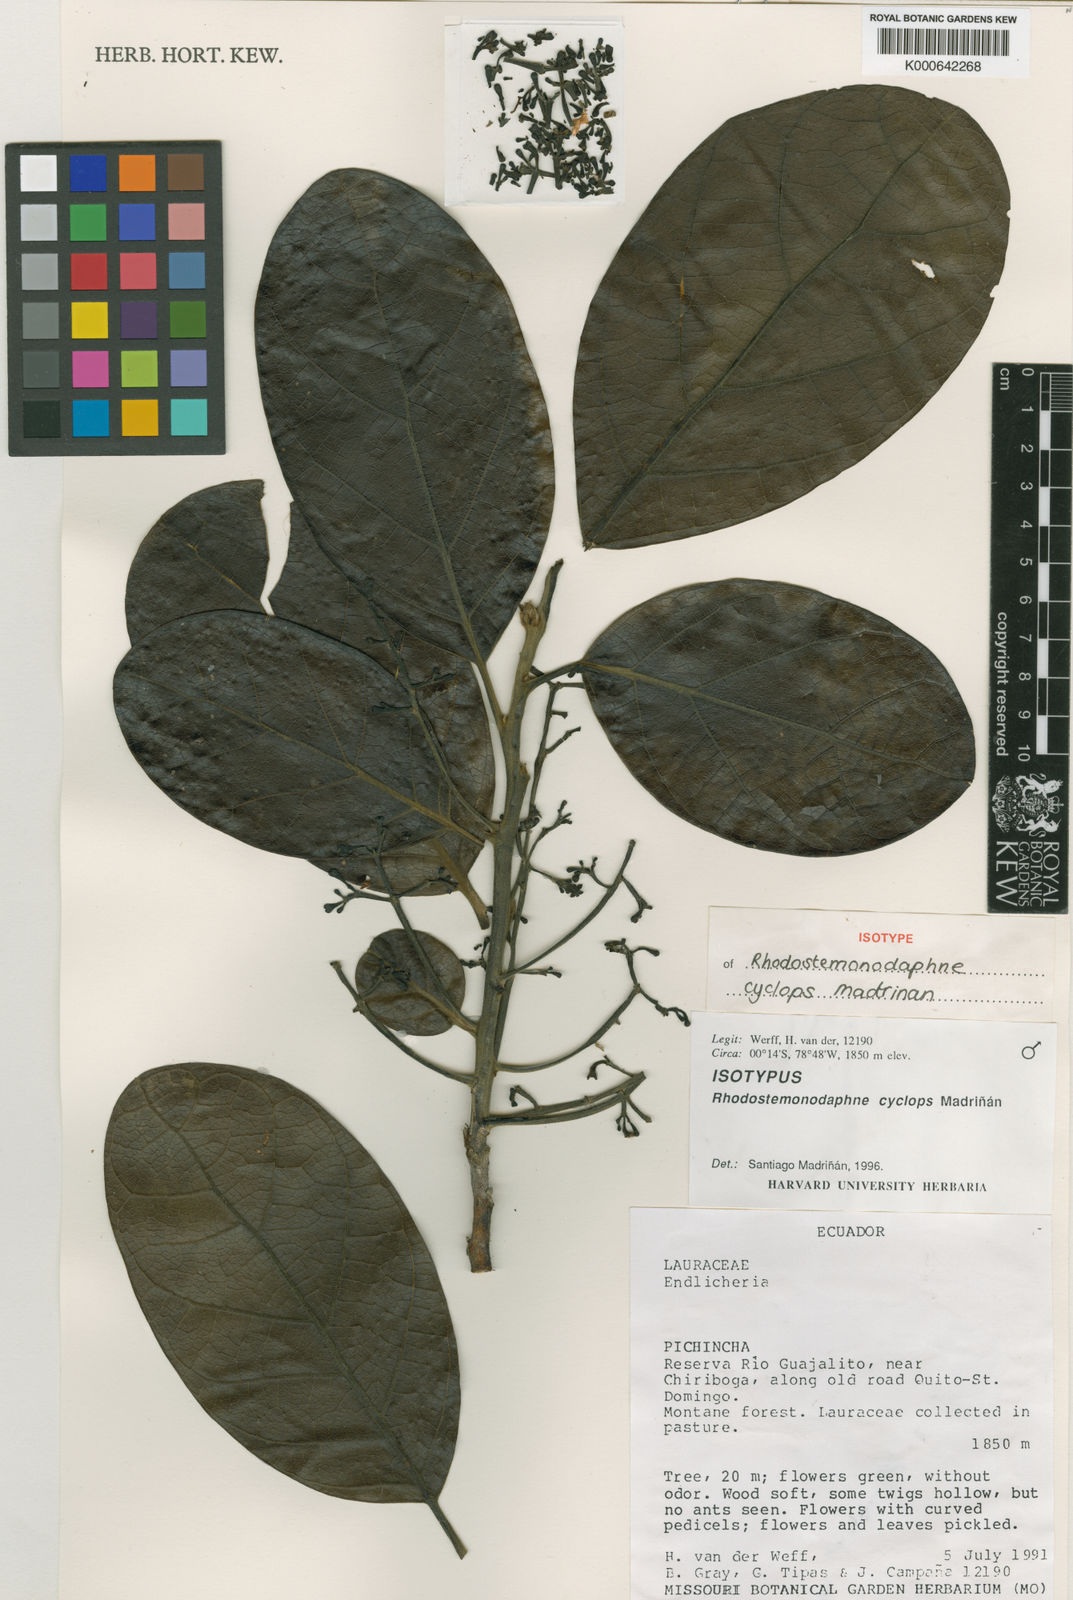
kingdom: Plantae
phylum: Tracheophyta
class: Magnoliopsida
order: Laurales
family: Lauraceae
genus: Rhodostemonodaphne
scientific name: Rhodostemonodaphne
